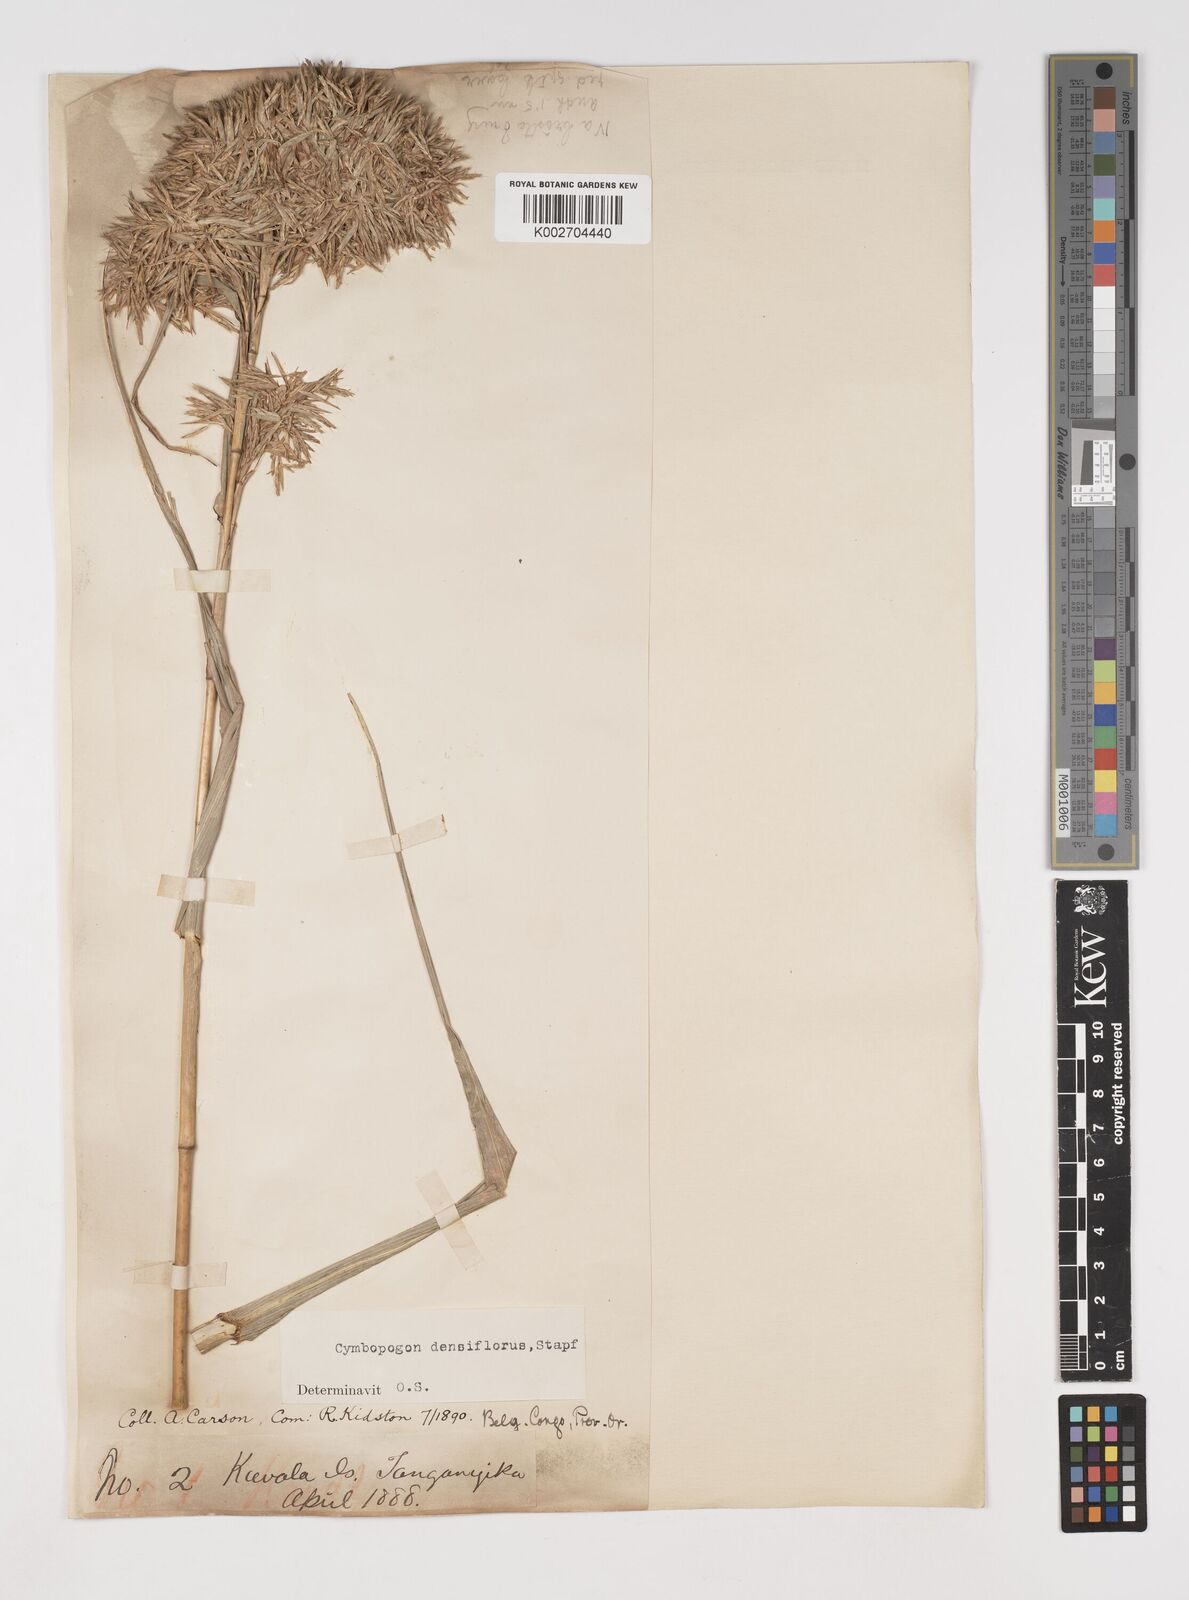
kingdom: Plantae
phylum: Tracheophyta
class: Liliopsida
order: Poales
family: Poaceae
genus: Cymbopogon
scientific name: Cymbopogon densiflorus
